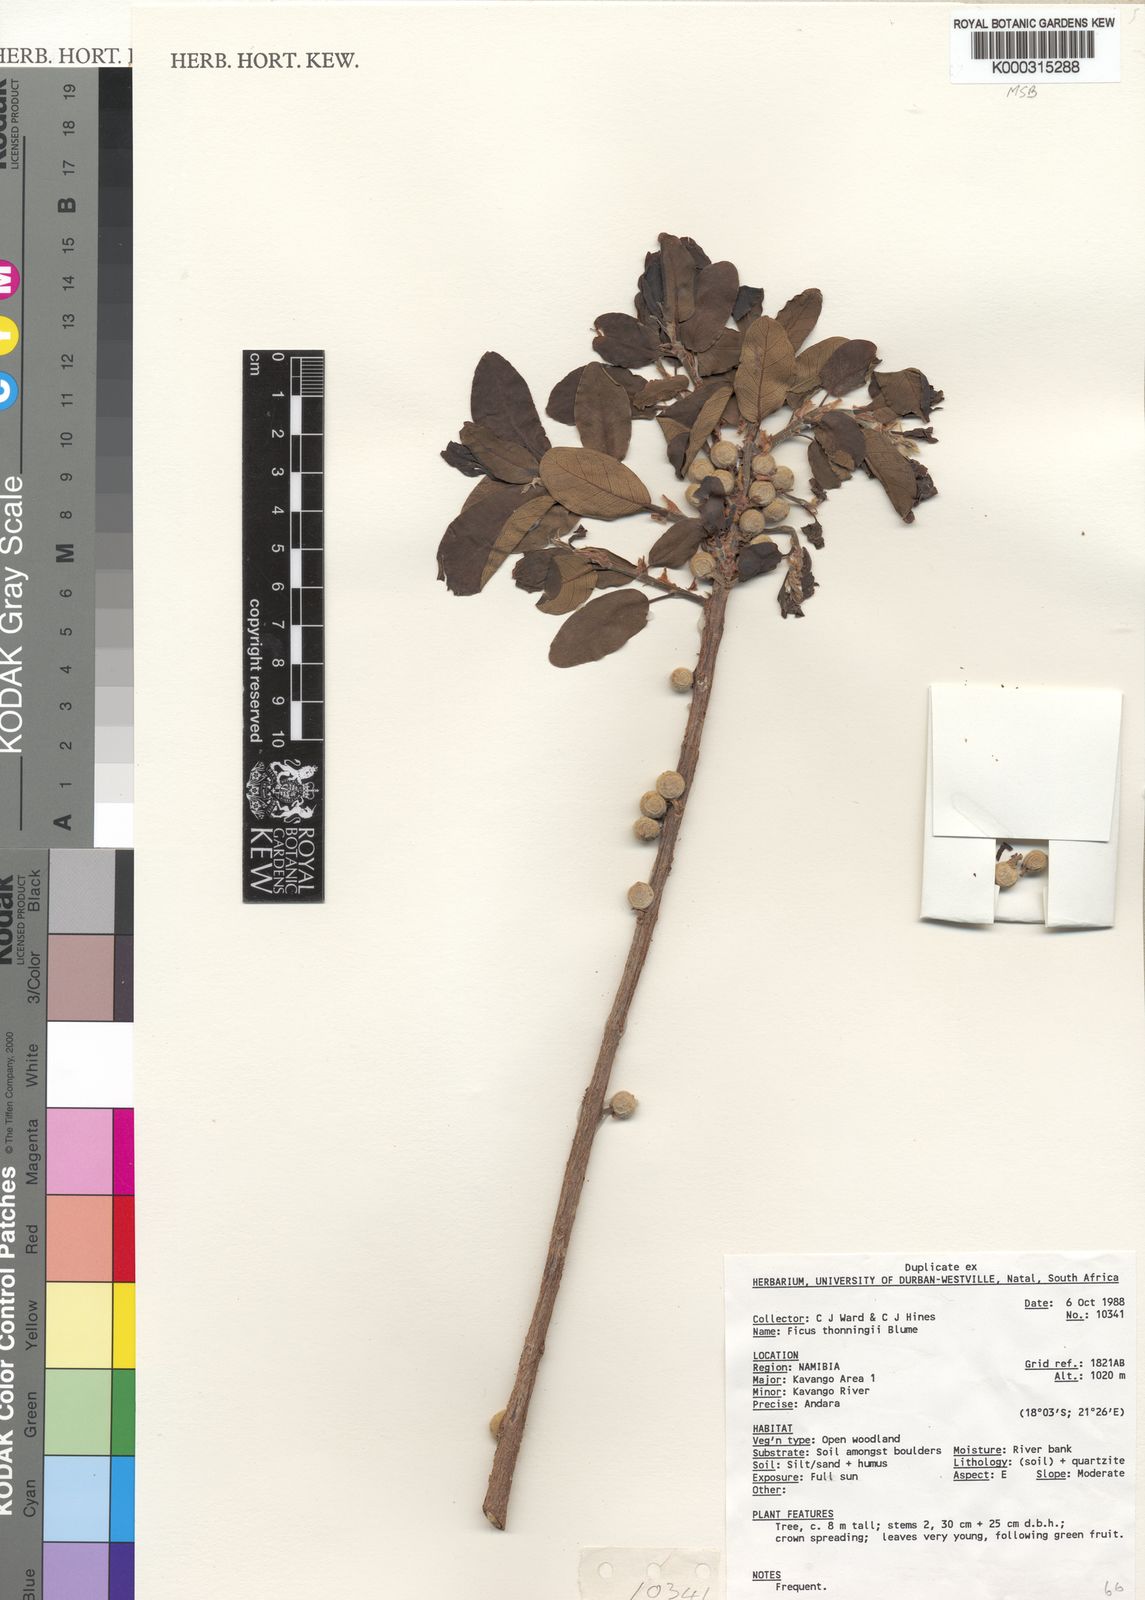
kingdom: Plantae
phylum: Tracheophyta
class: Magnoliopsida
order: Rosales
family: Moraceae
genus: Ficus
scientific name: Ficus thonningii
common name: Fig
